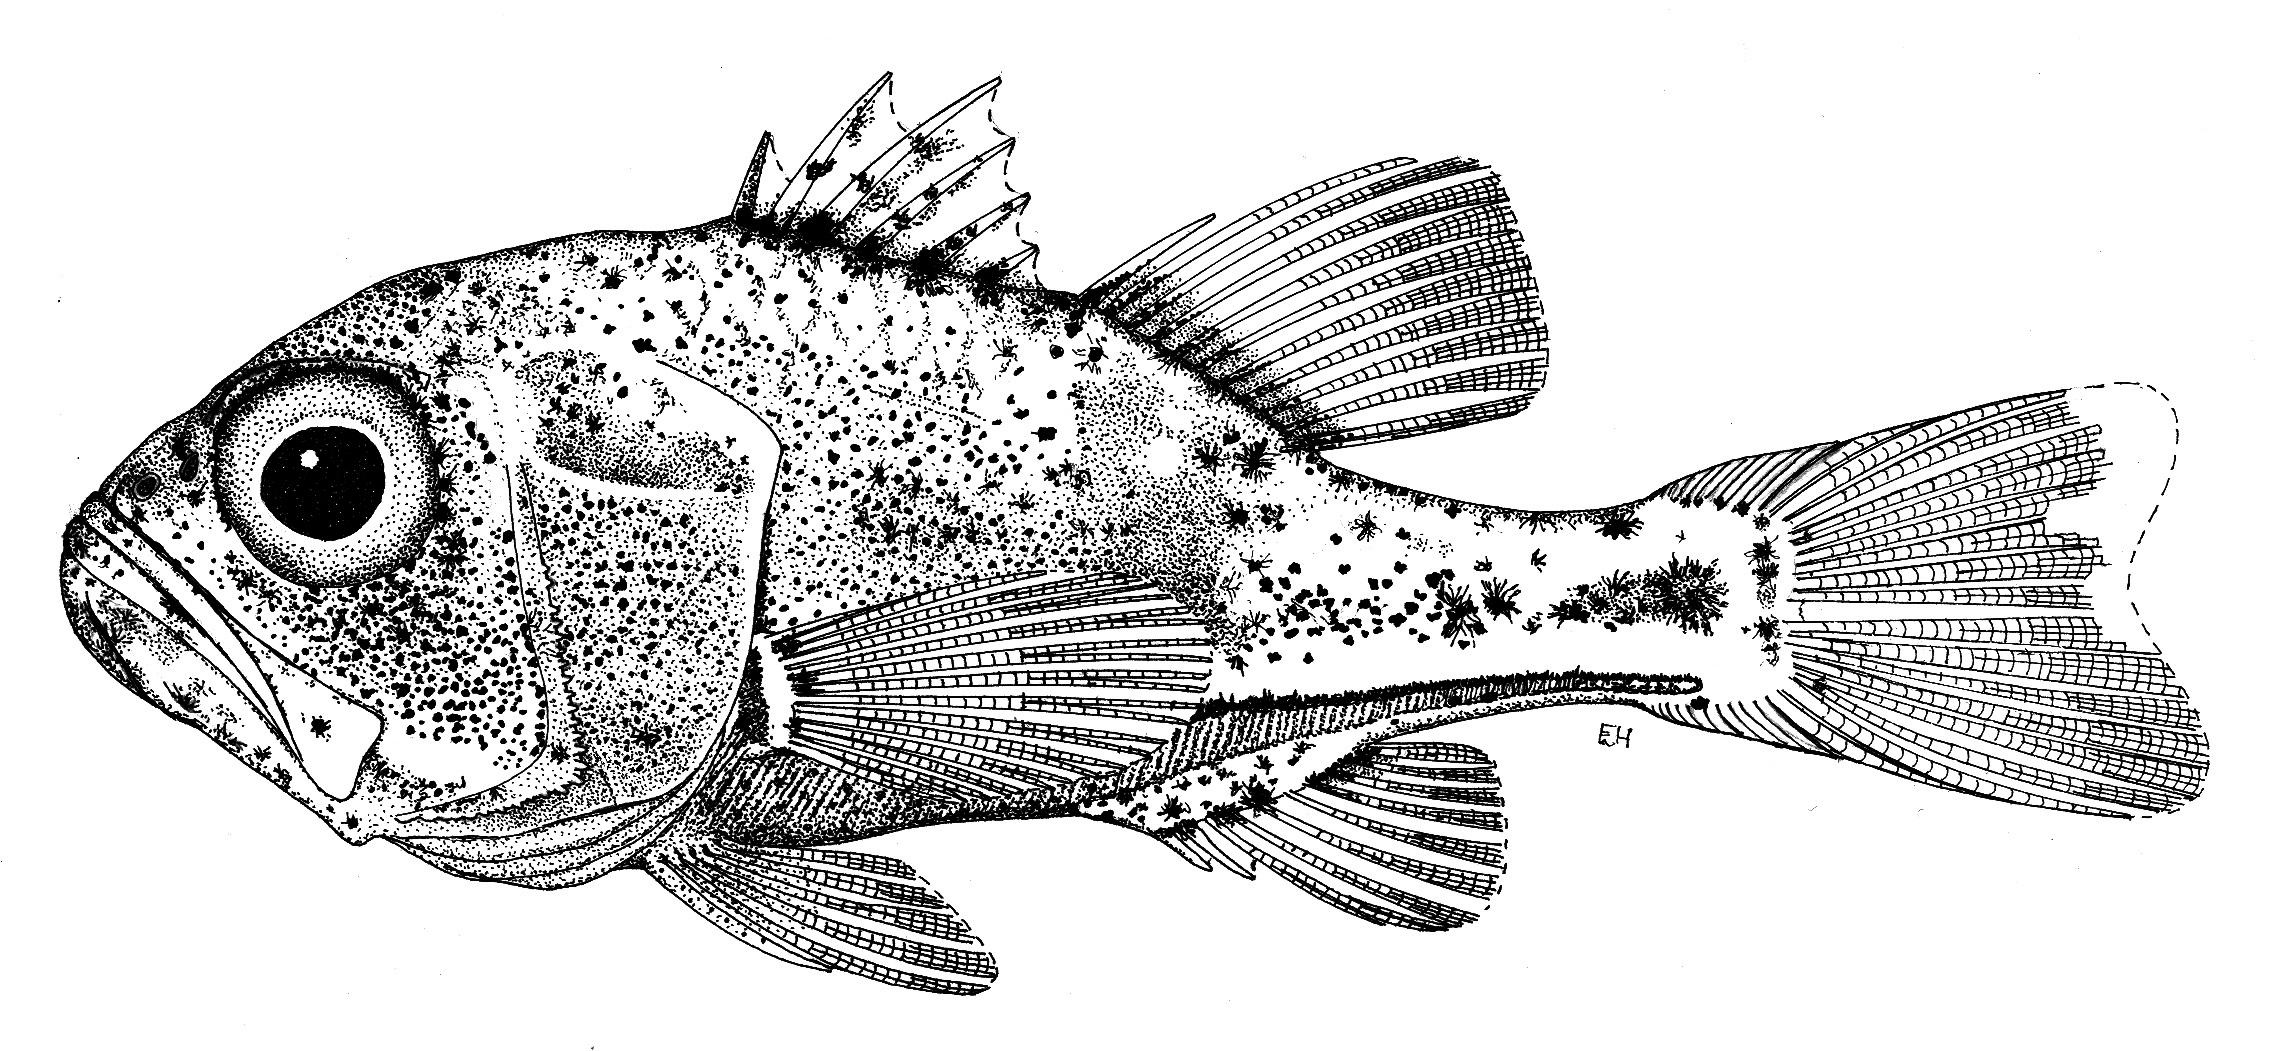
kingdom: Animalia
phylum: Chordata
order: Perciformes
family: Apogonidae
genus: Siphamia
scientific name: Siphamia majimai
